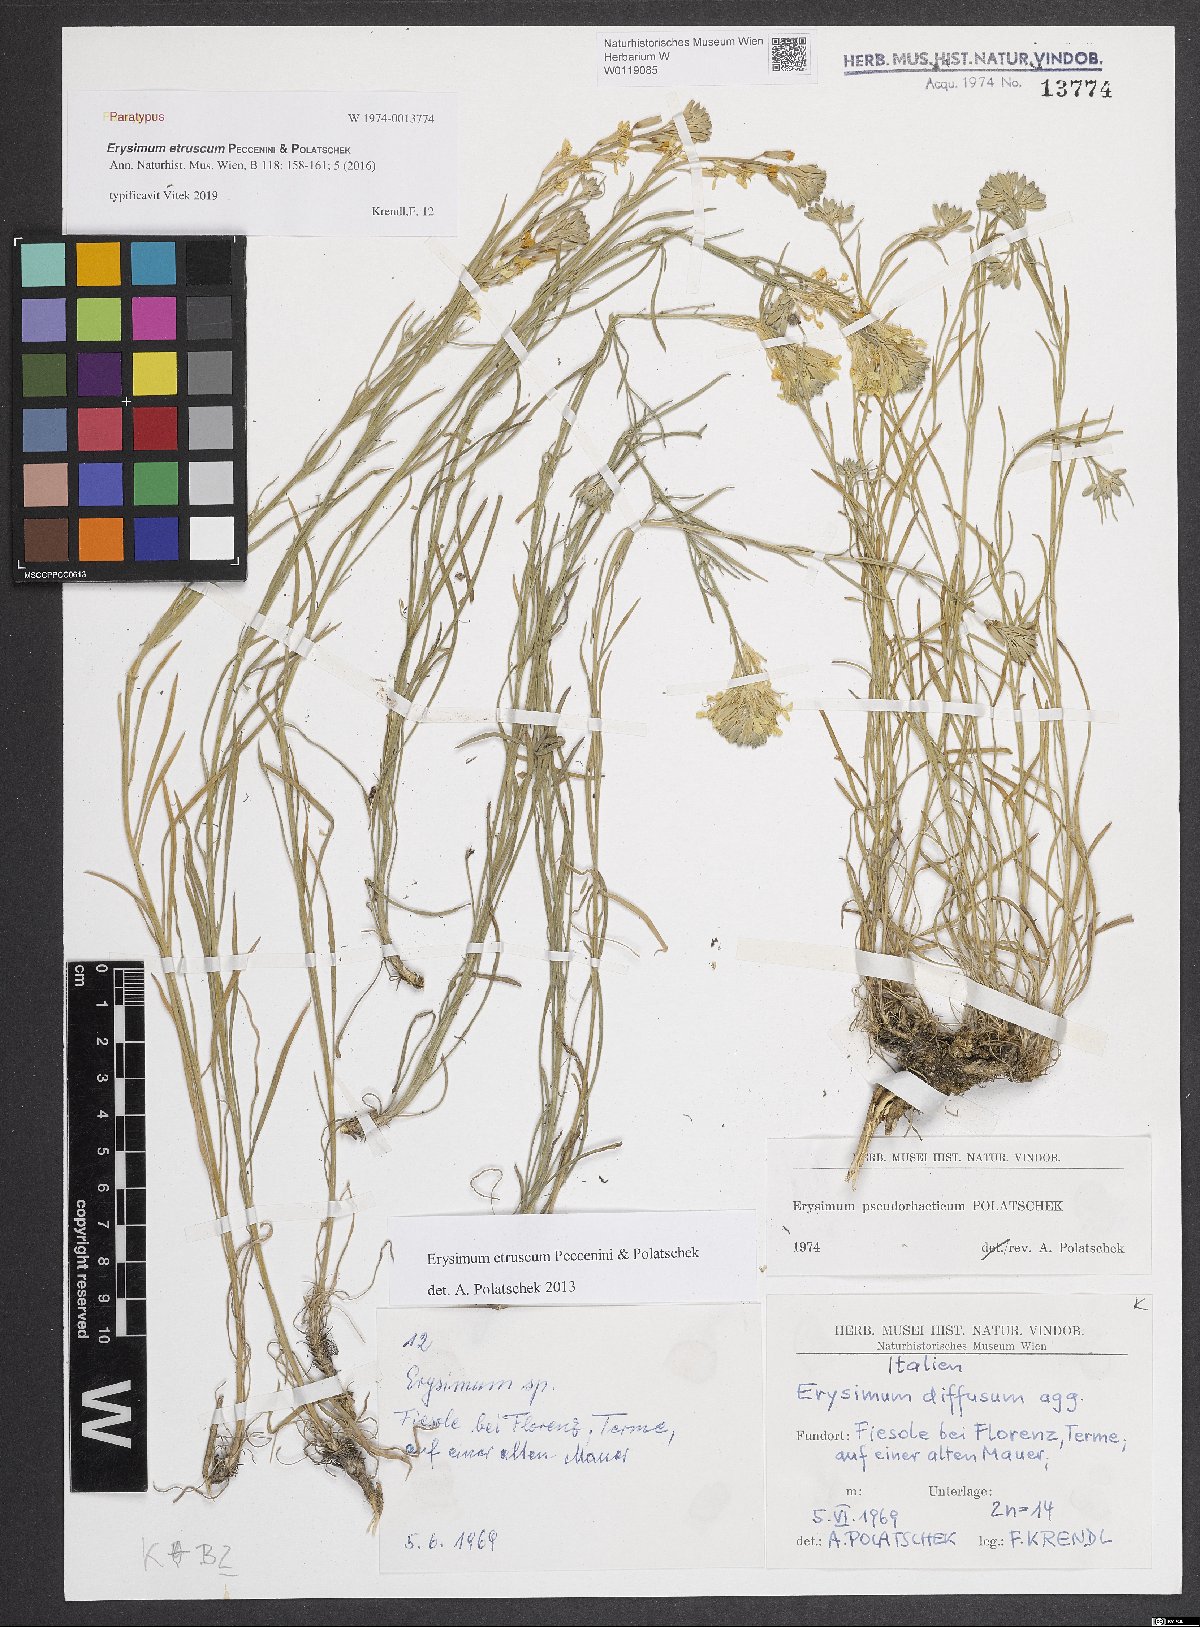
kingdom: Plantae
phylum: Tracheophyta
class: Magnoliopsida
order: Brassicales
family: Brassicaceae
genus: Erysimum
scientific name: Erysimum pseudorhaeticum
